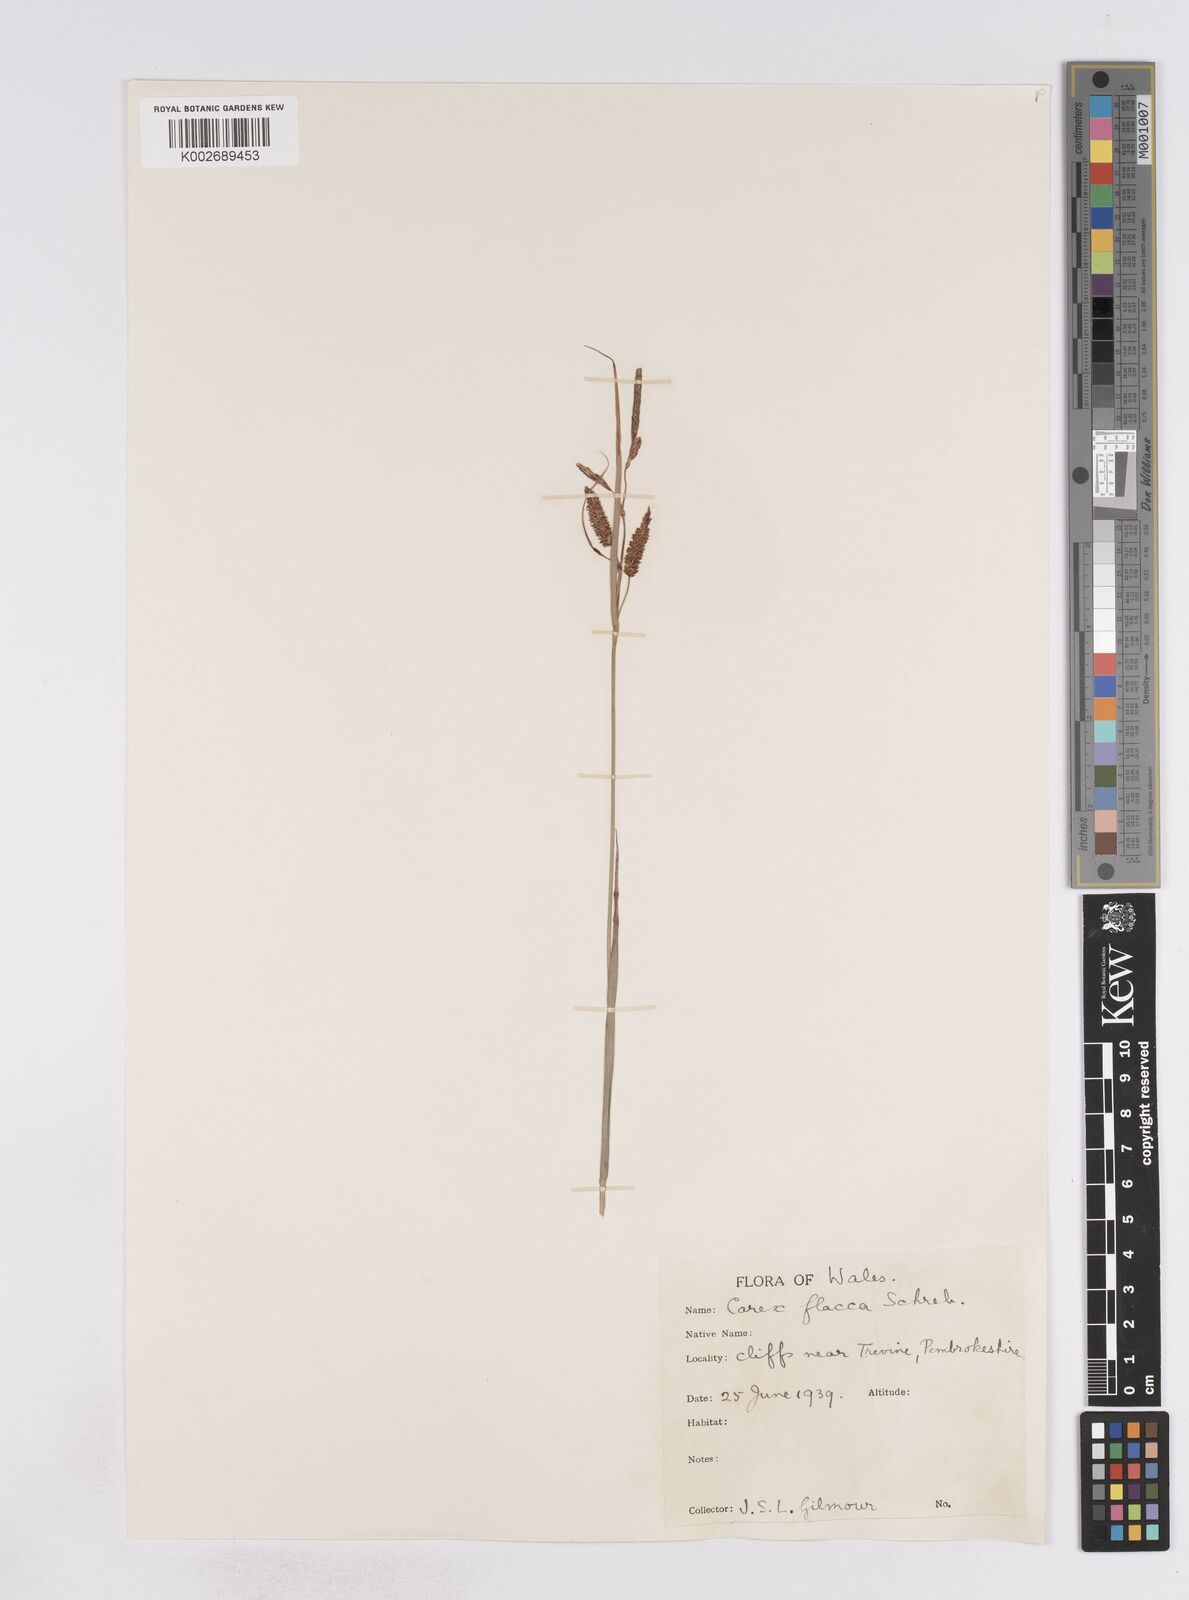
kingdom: Plantae
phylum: Tracheophyta
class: Liliopsida
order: Poales
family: Cyperaceae
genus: Carex
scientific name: Carex flacca
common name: Glaucous sedge
